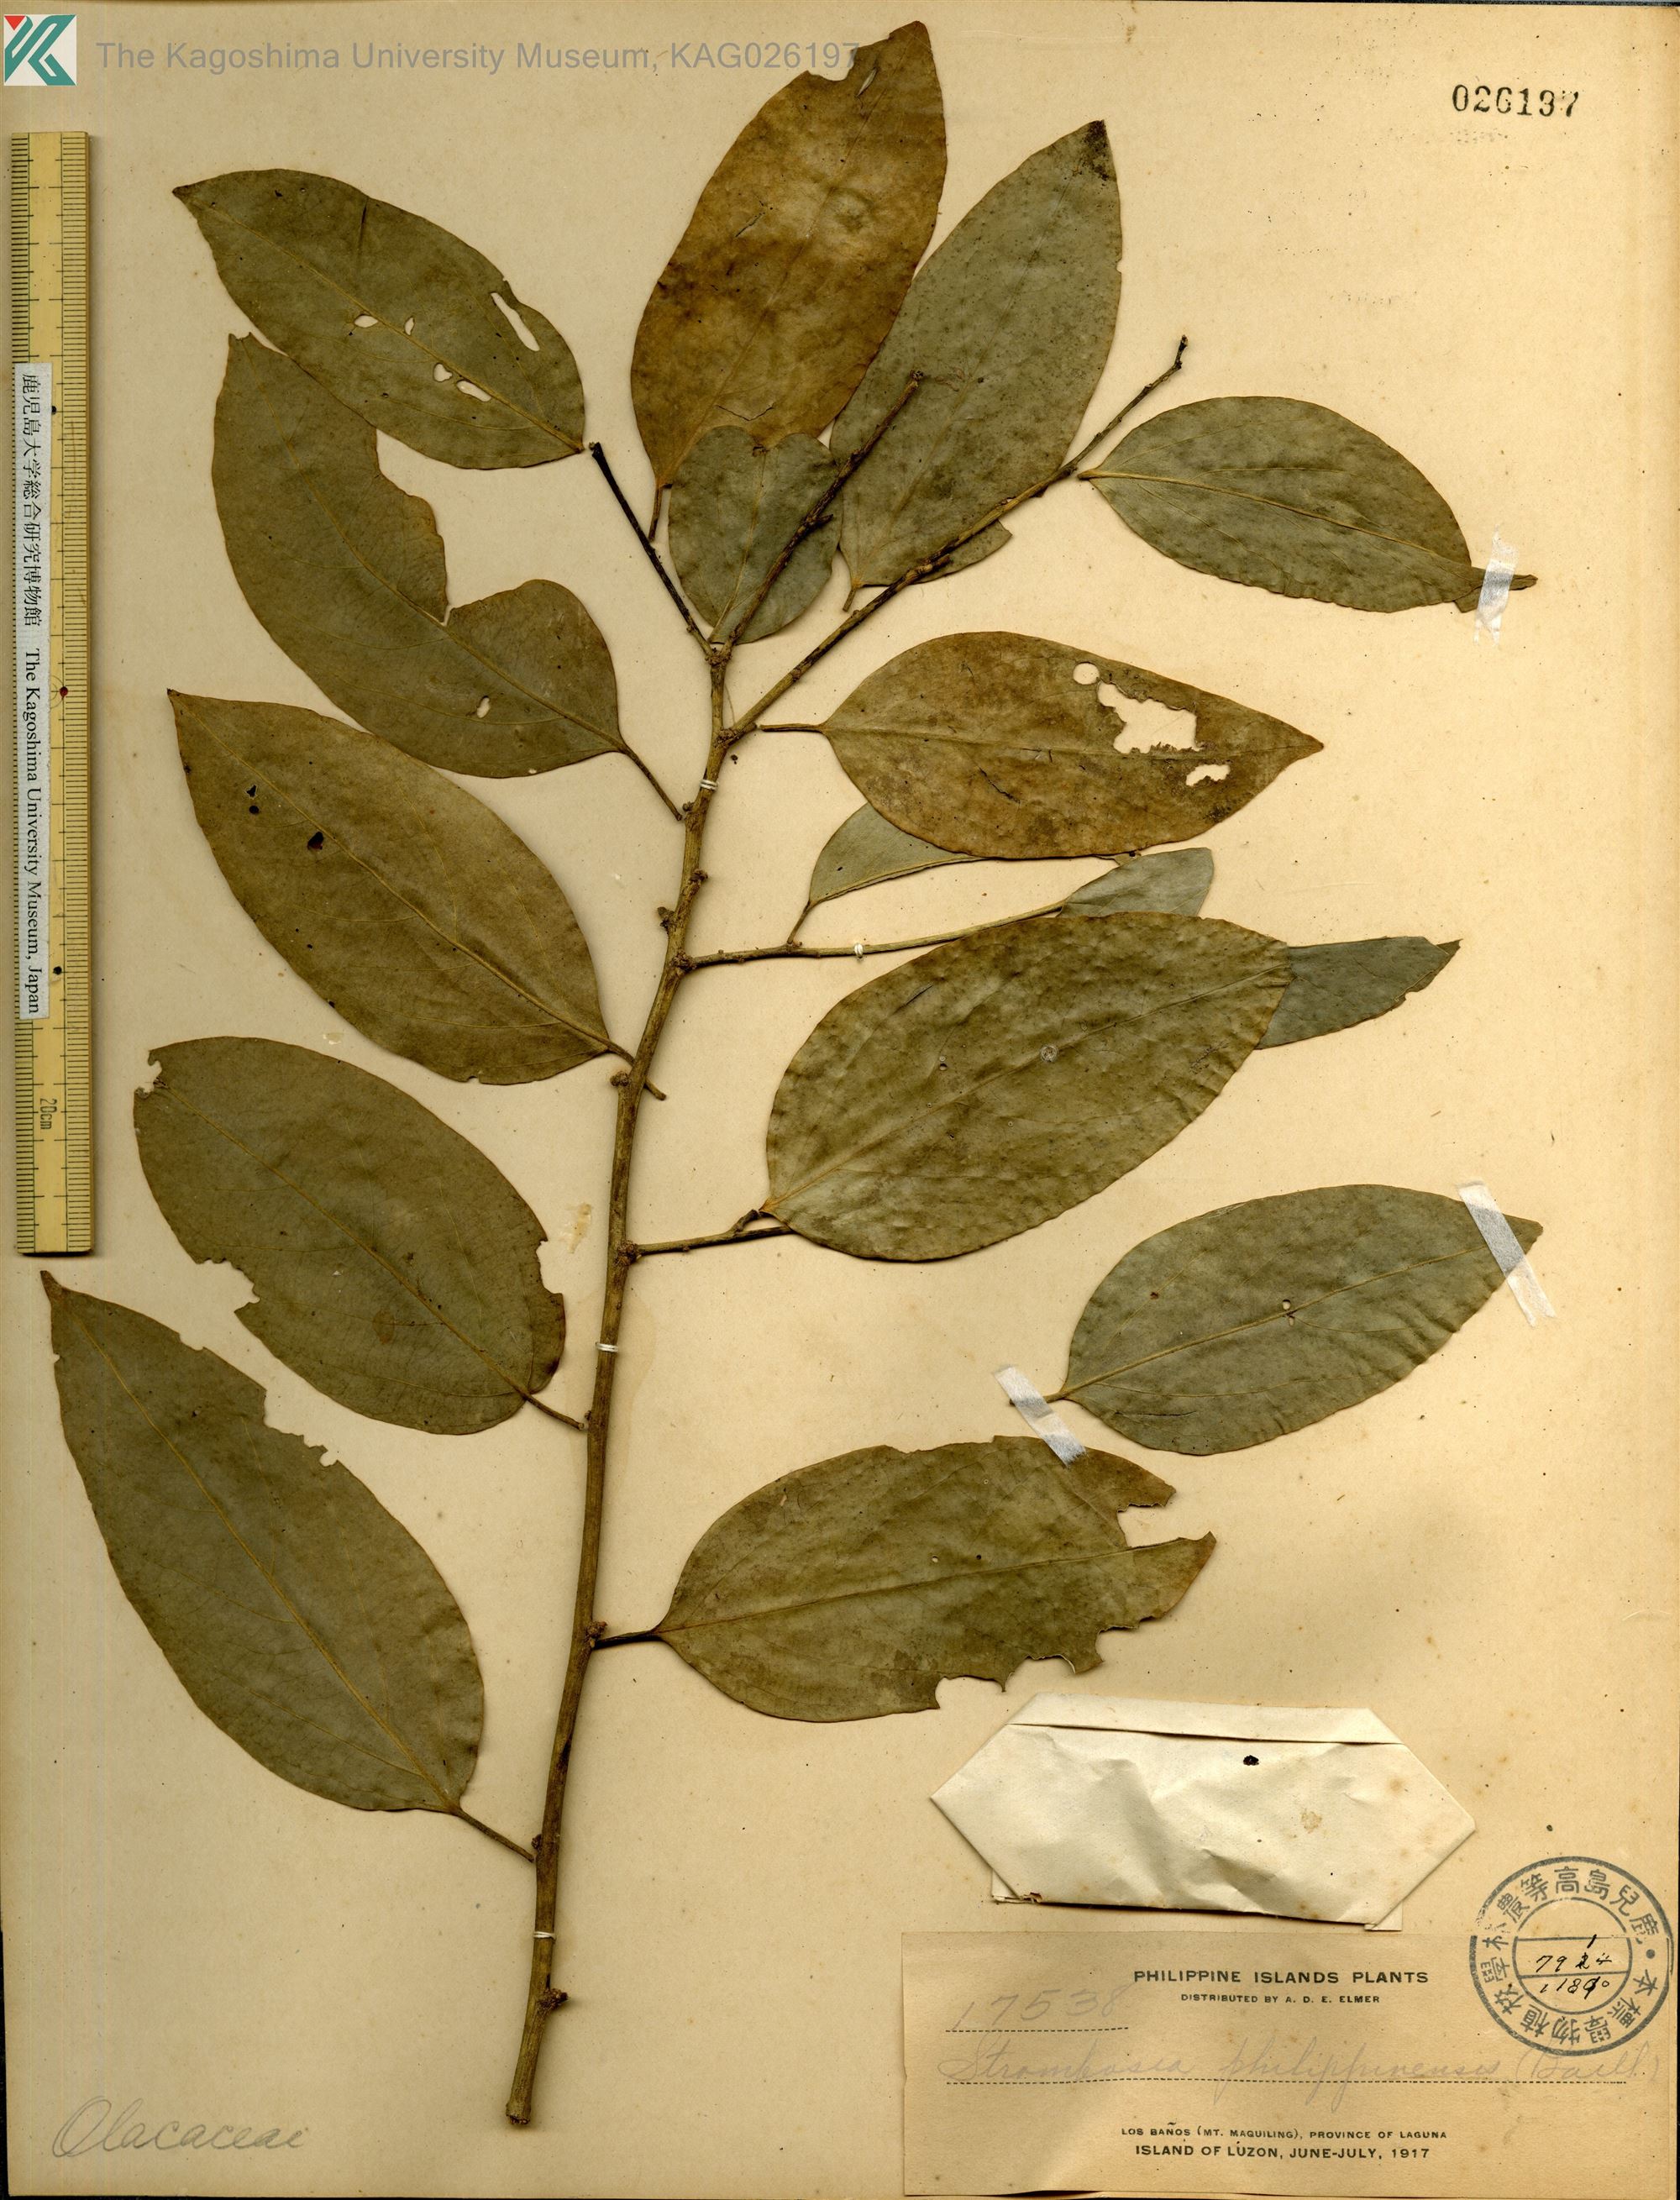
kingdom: Plantae
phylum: Tracheophyta
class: Magnoliopsida
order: Santalales
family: Strombosiaceae
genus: Strombosia
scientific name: Strombosia philippinensis
